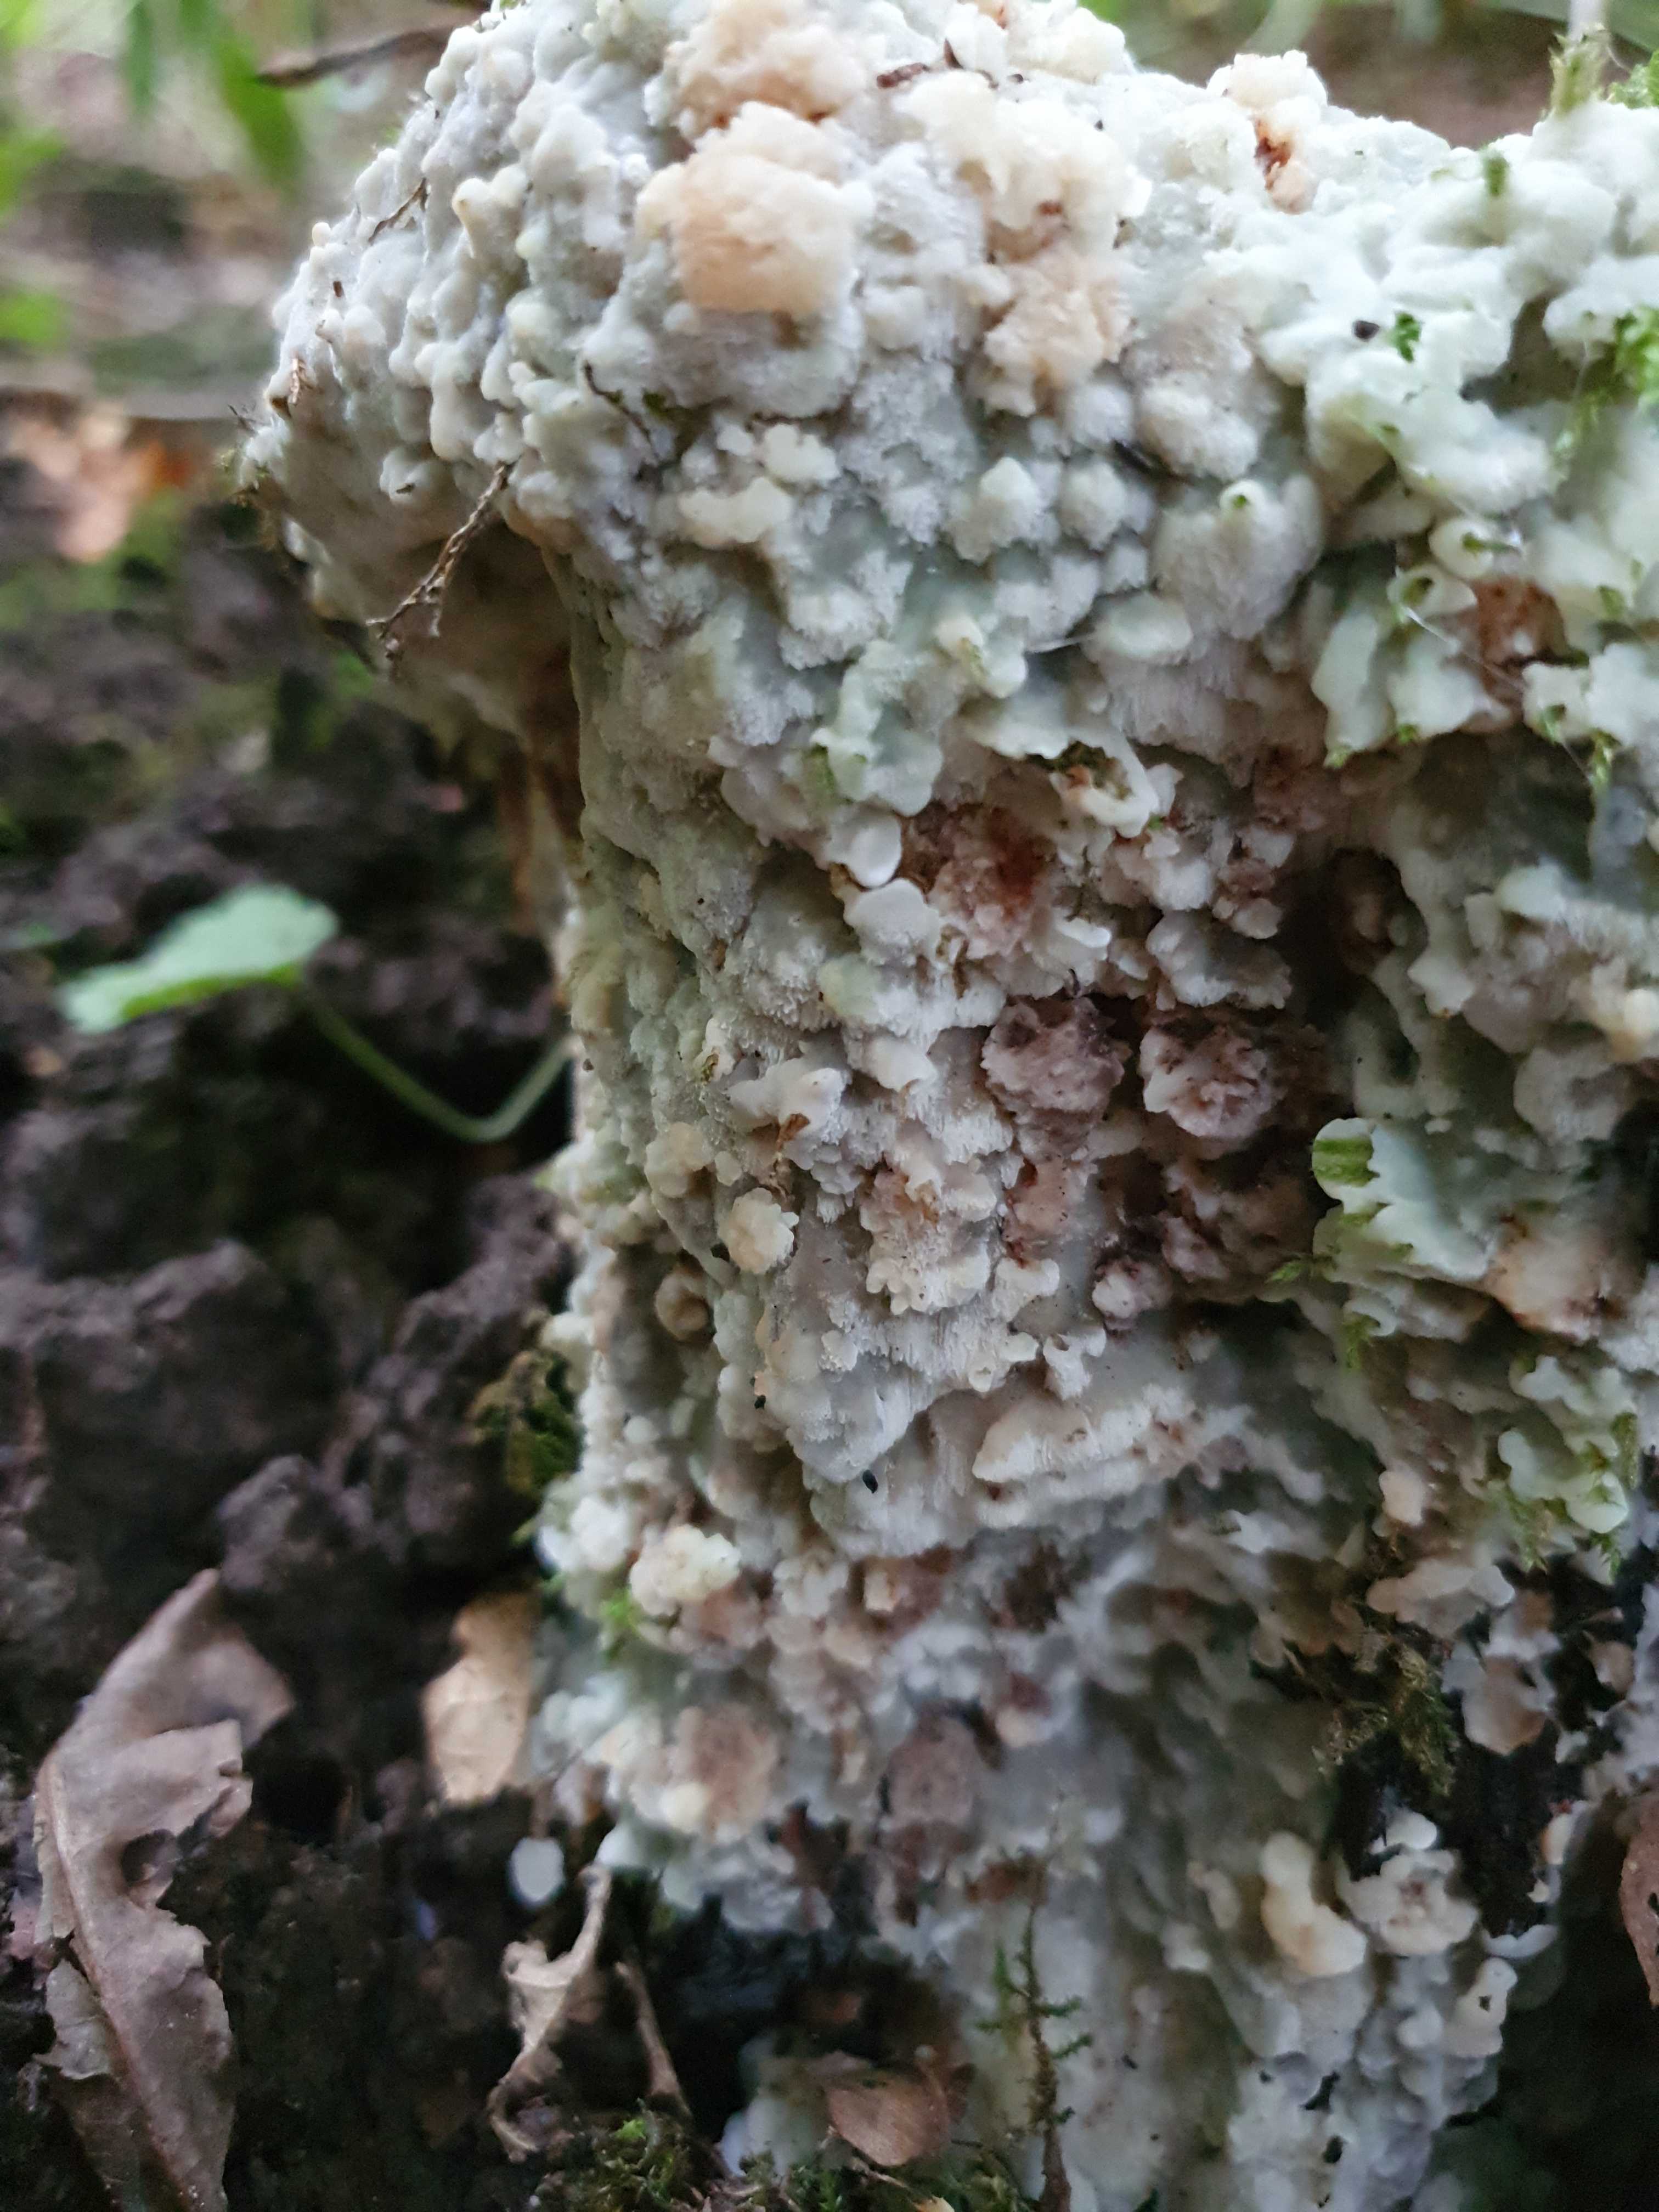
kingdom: Fungi
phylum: Basidiomycota
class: Agaricomycetes
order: Polyporales
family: Meruliaceae
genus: Physisporinus
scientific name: Physisporinus vitreus
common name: mastesvamp
